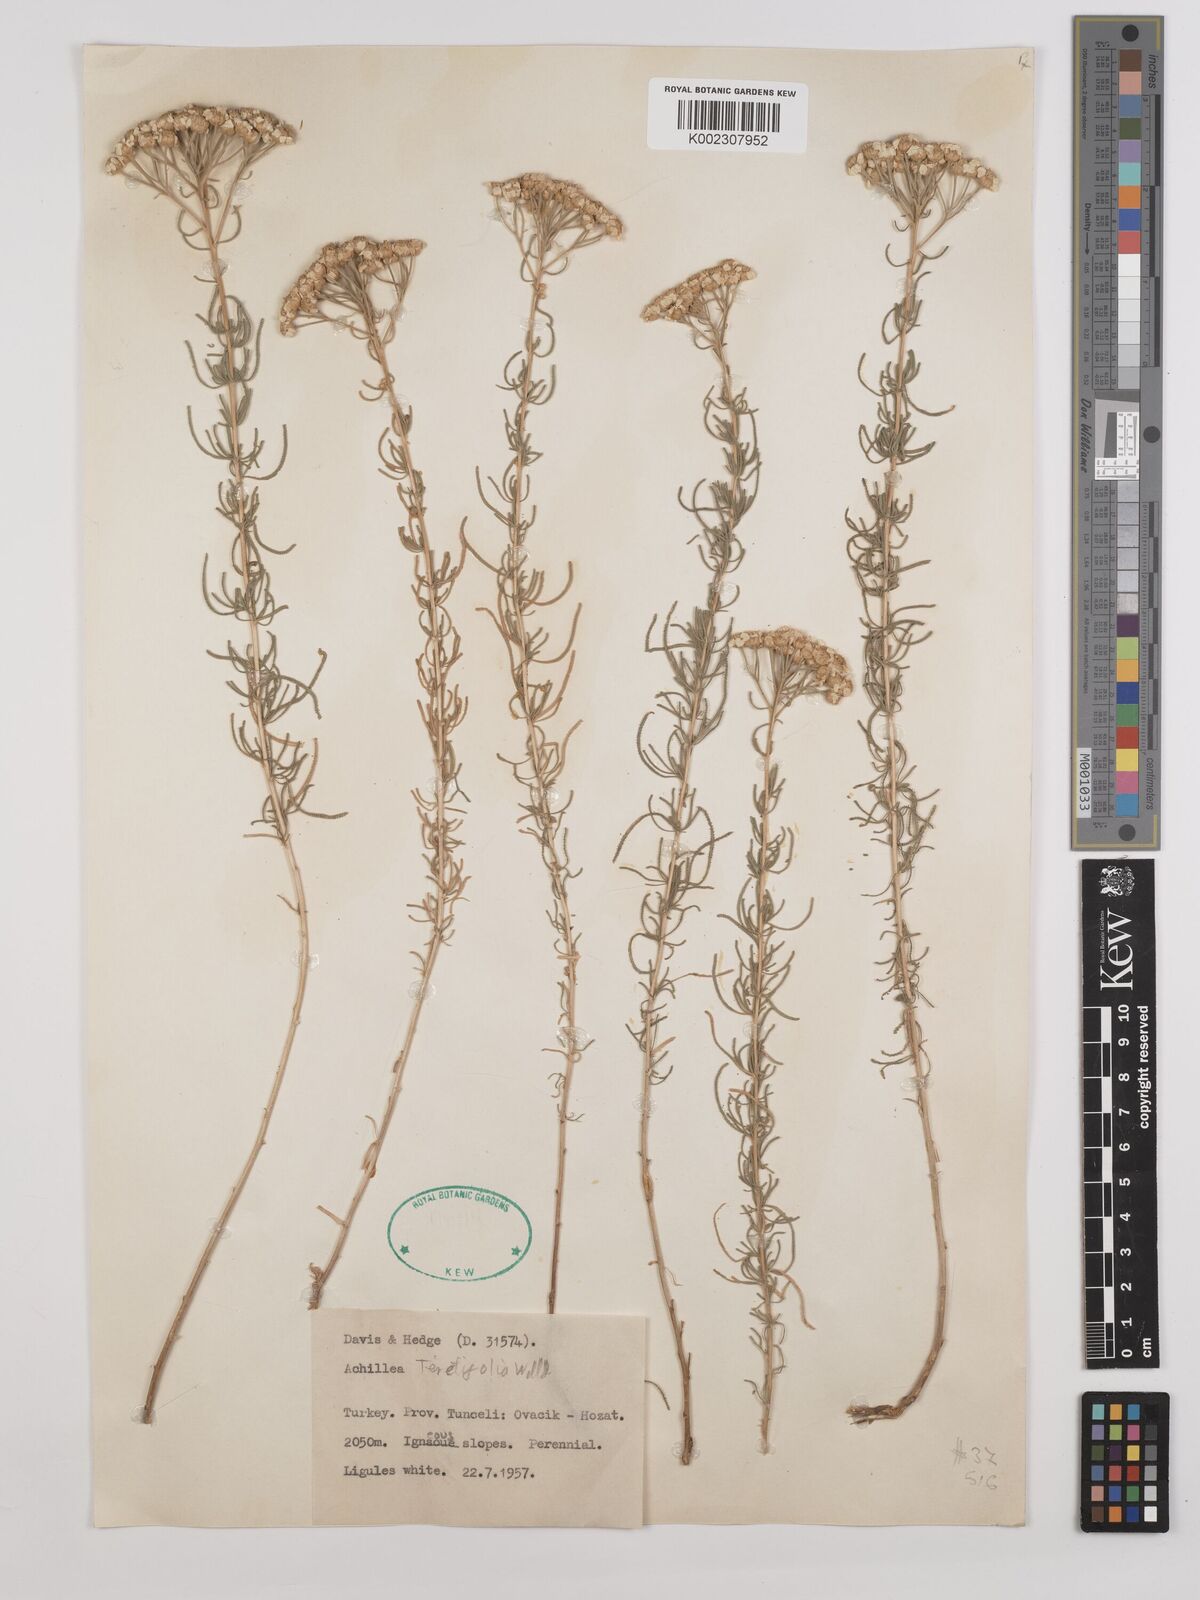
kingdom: Plantae
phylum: Tracheophyta
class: Magnoliopsida
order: Asterales
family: Asteraceae
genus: Achillea
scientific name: Achillea wilhelmsii
